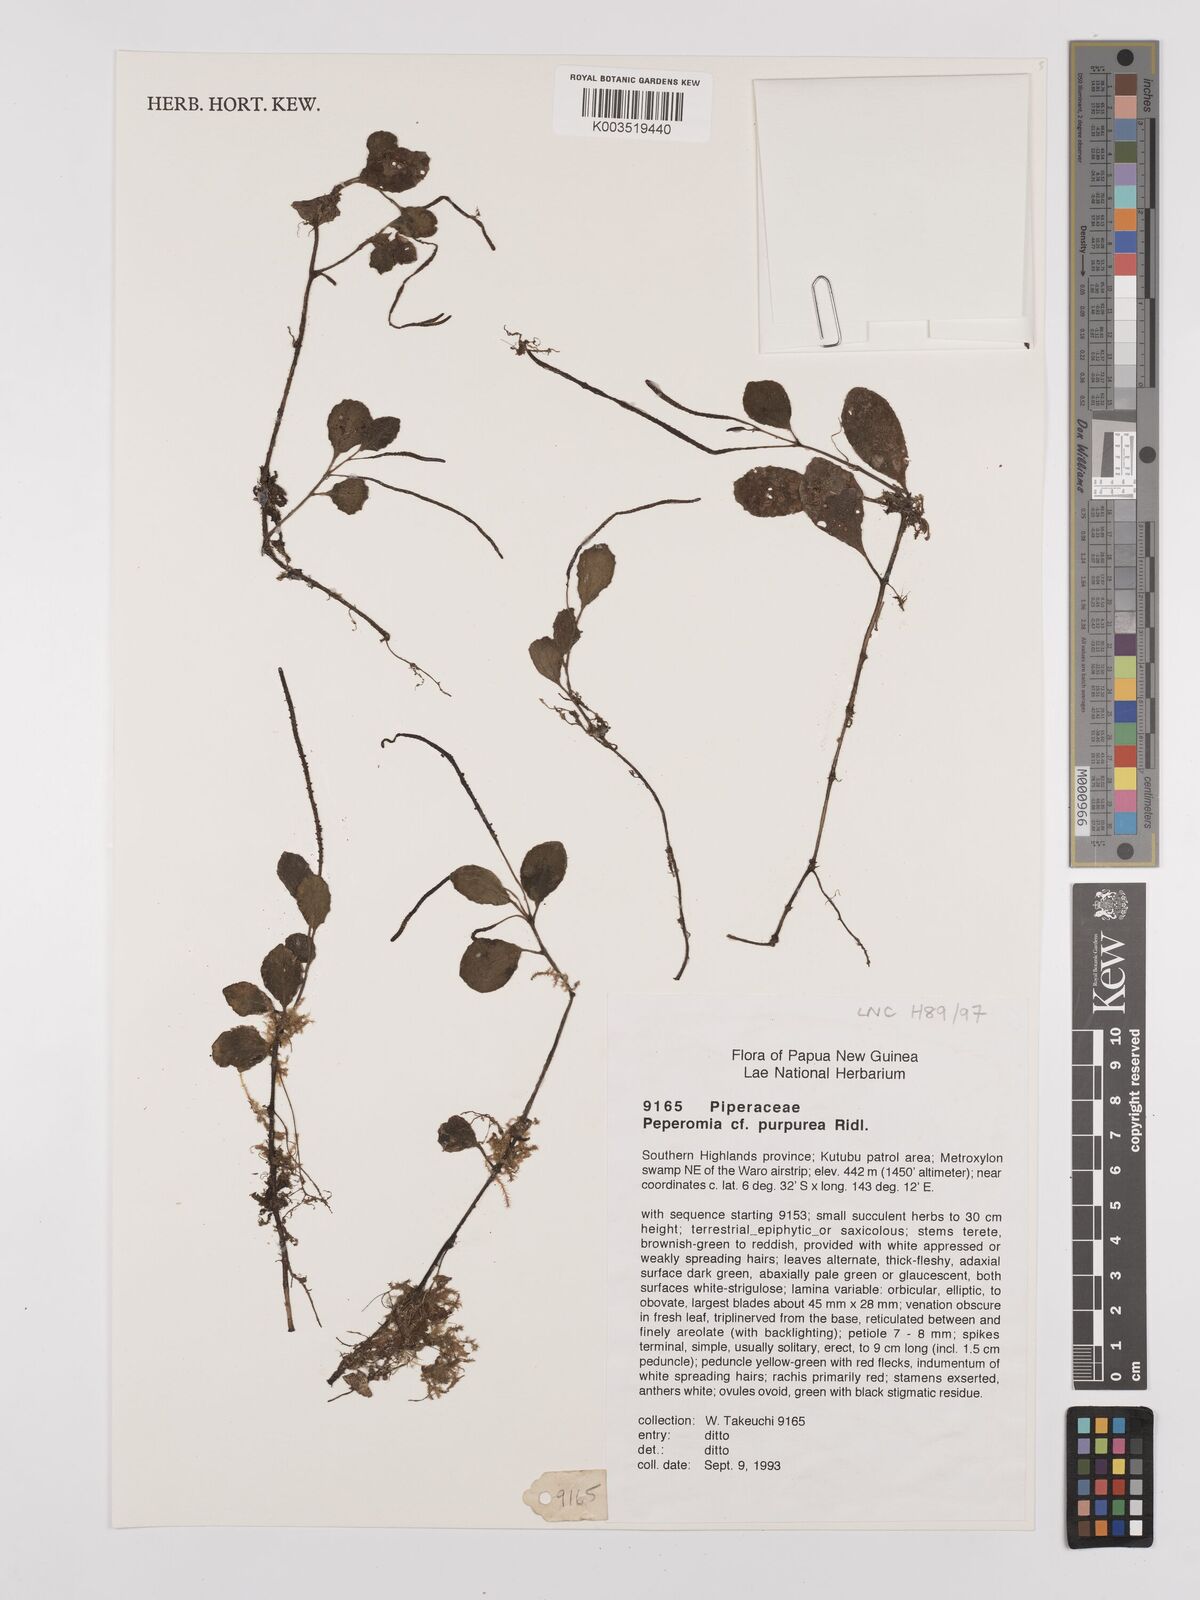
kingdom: Plantae
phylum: Tracheophyta
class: Magnoliopsida
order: Piperales
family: Piperaceae
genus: Peperomia
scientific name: Peperomia colossina
